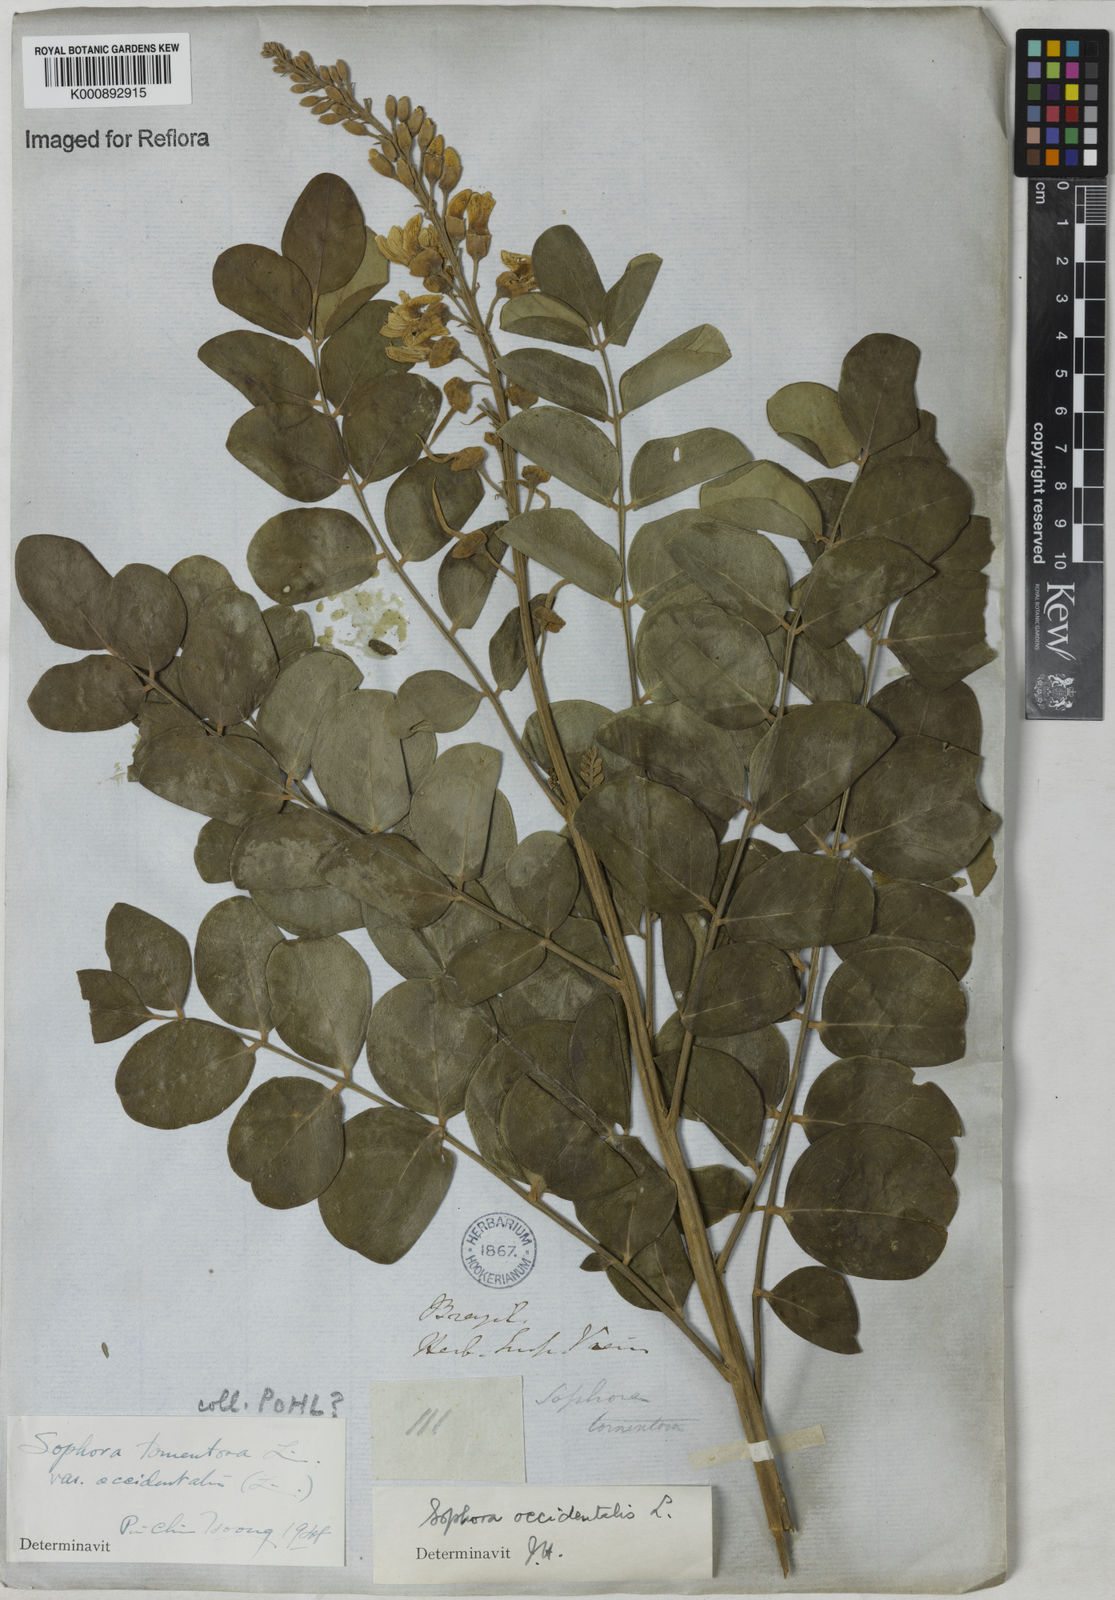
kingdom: Plantae
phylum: Tracheophyta
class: Magnoliopsida
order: Fabales
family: Fabaceae
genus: Sophora
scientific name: Sophora tomentosa
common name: Yellow necklacepod
